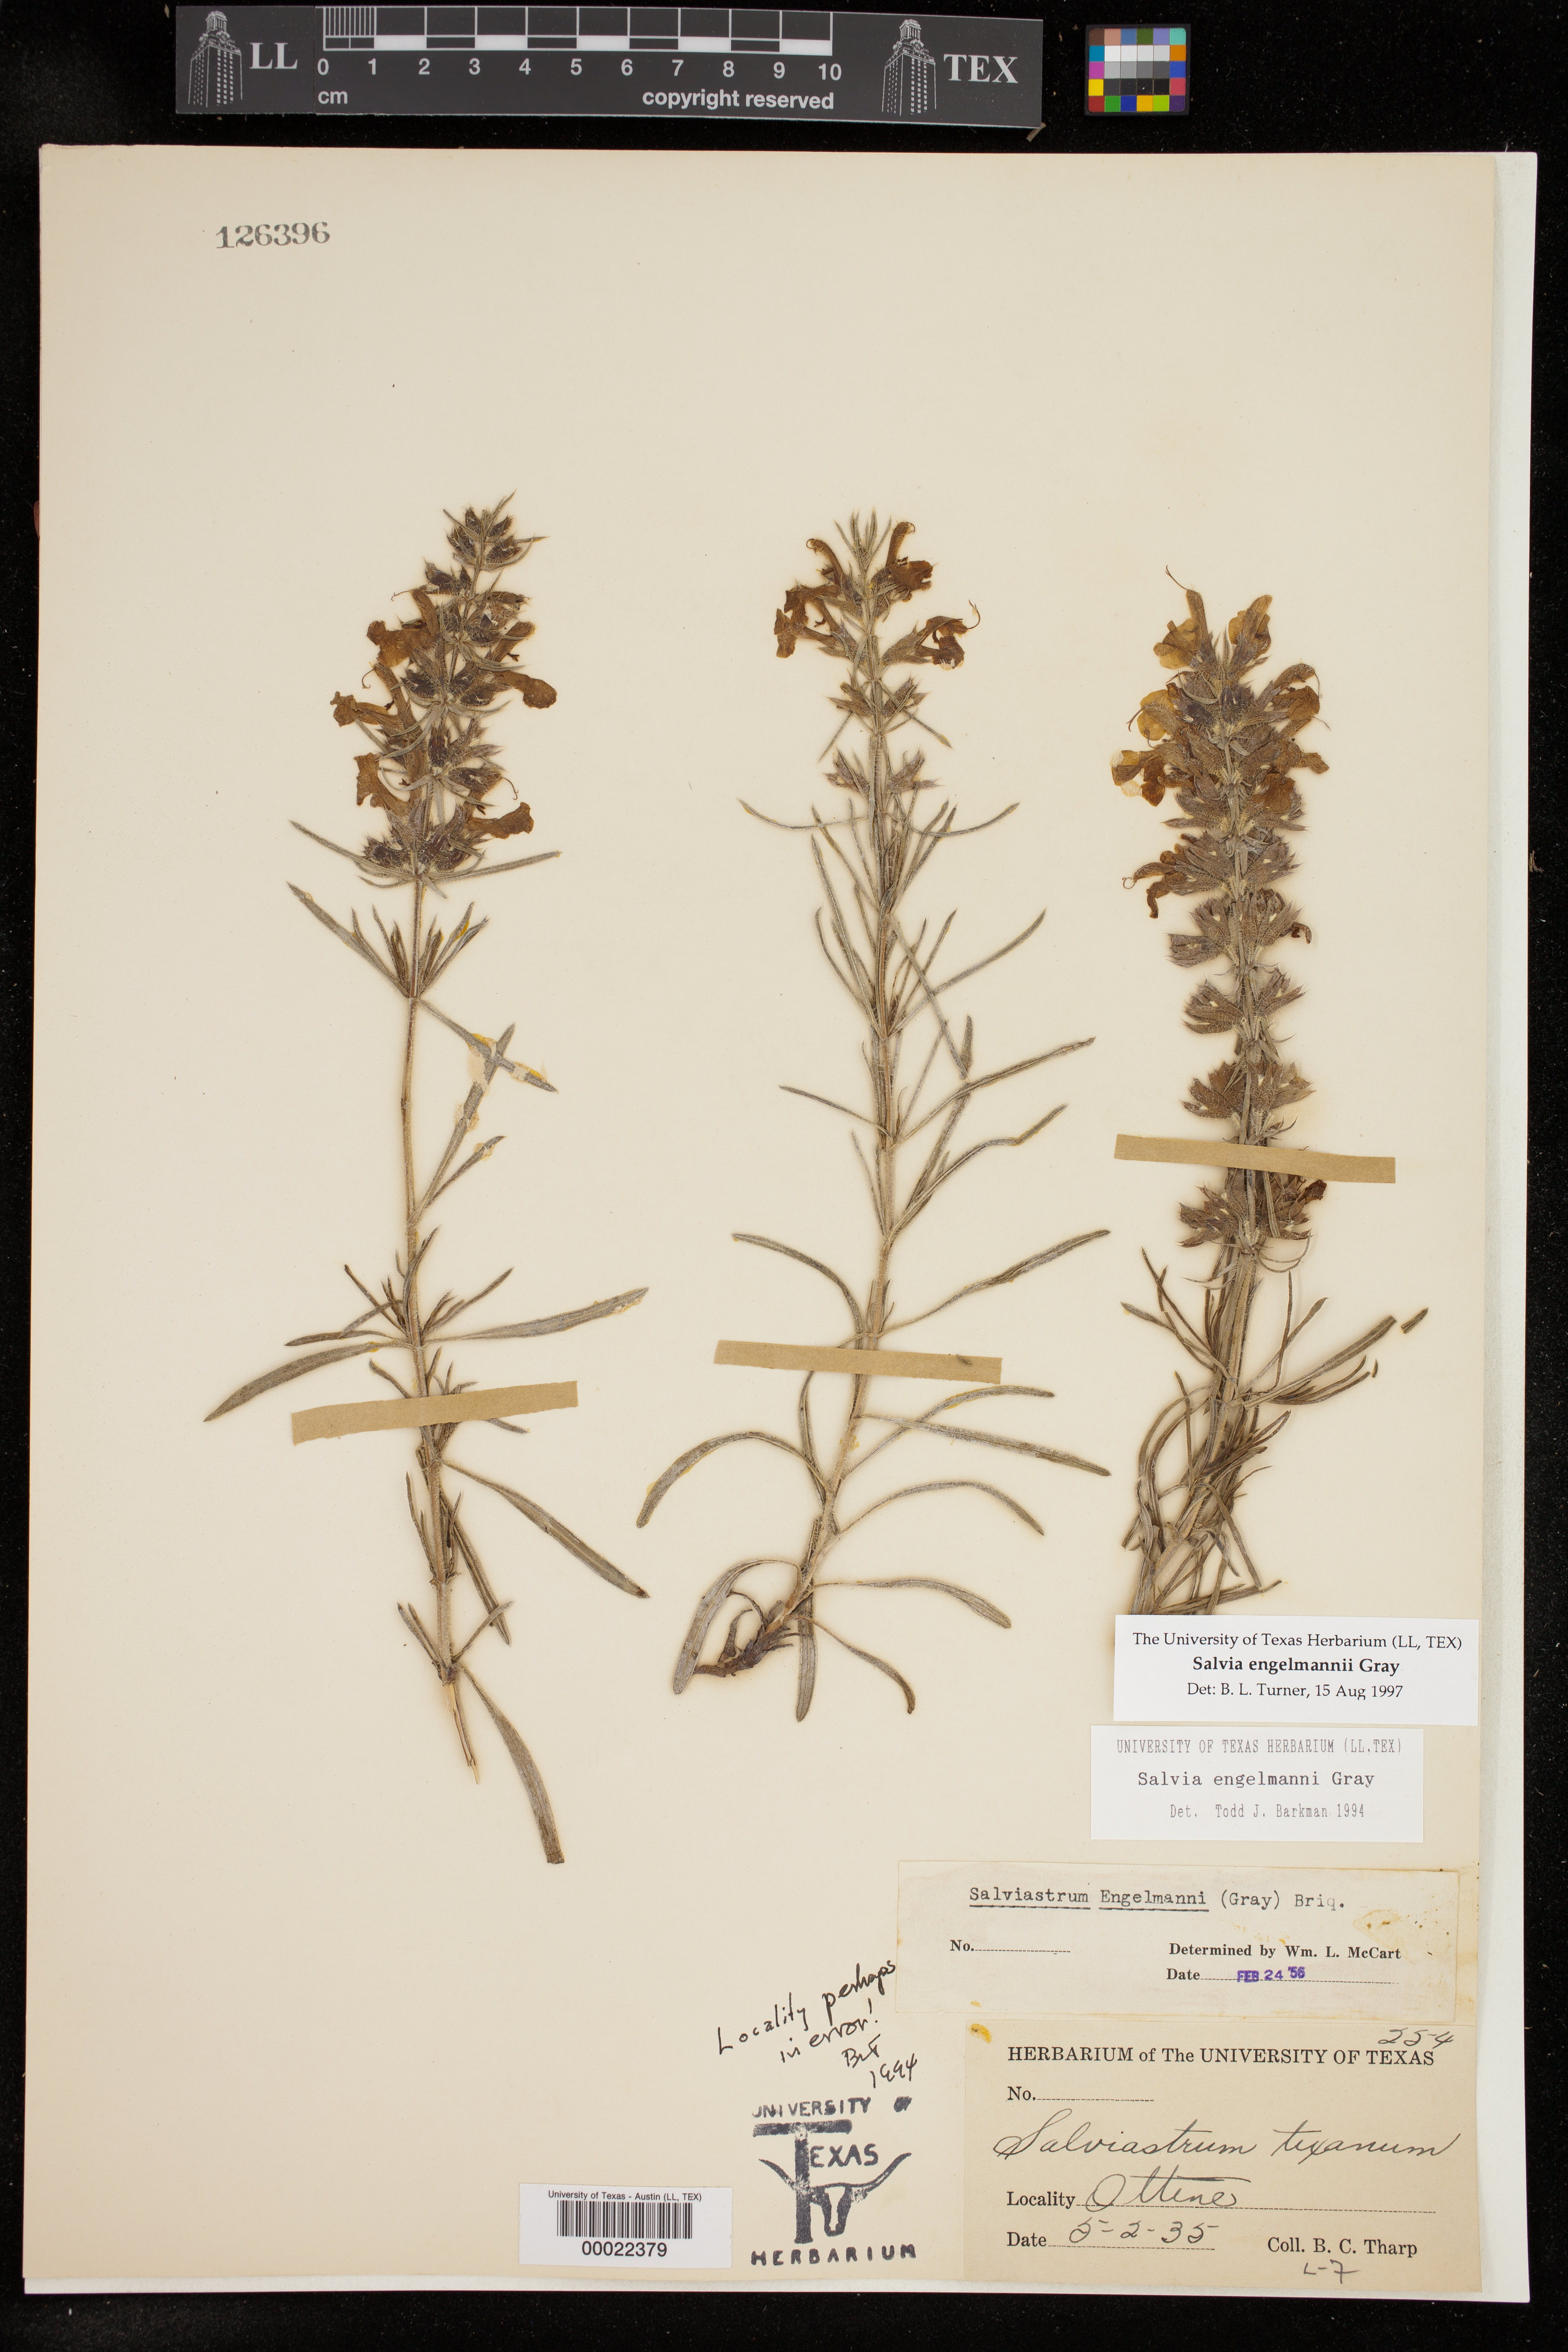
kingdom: Plantae
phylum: Tracheophyta
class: Magnoliopsida
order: Lamiales
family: Lamiaceae
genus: Salvia
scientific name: Salvia engelmannii
